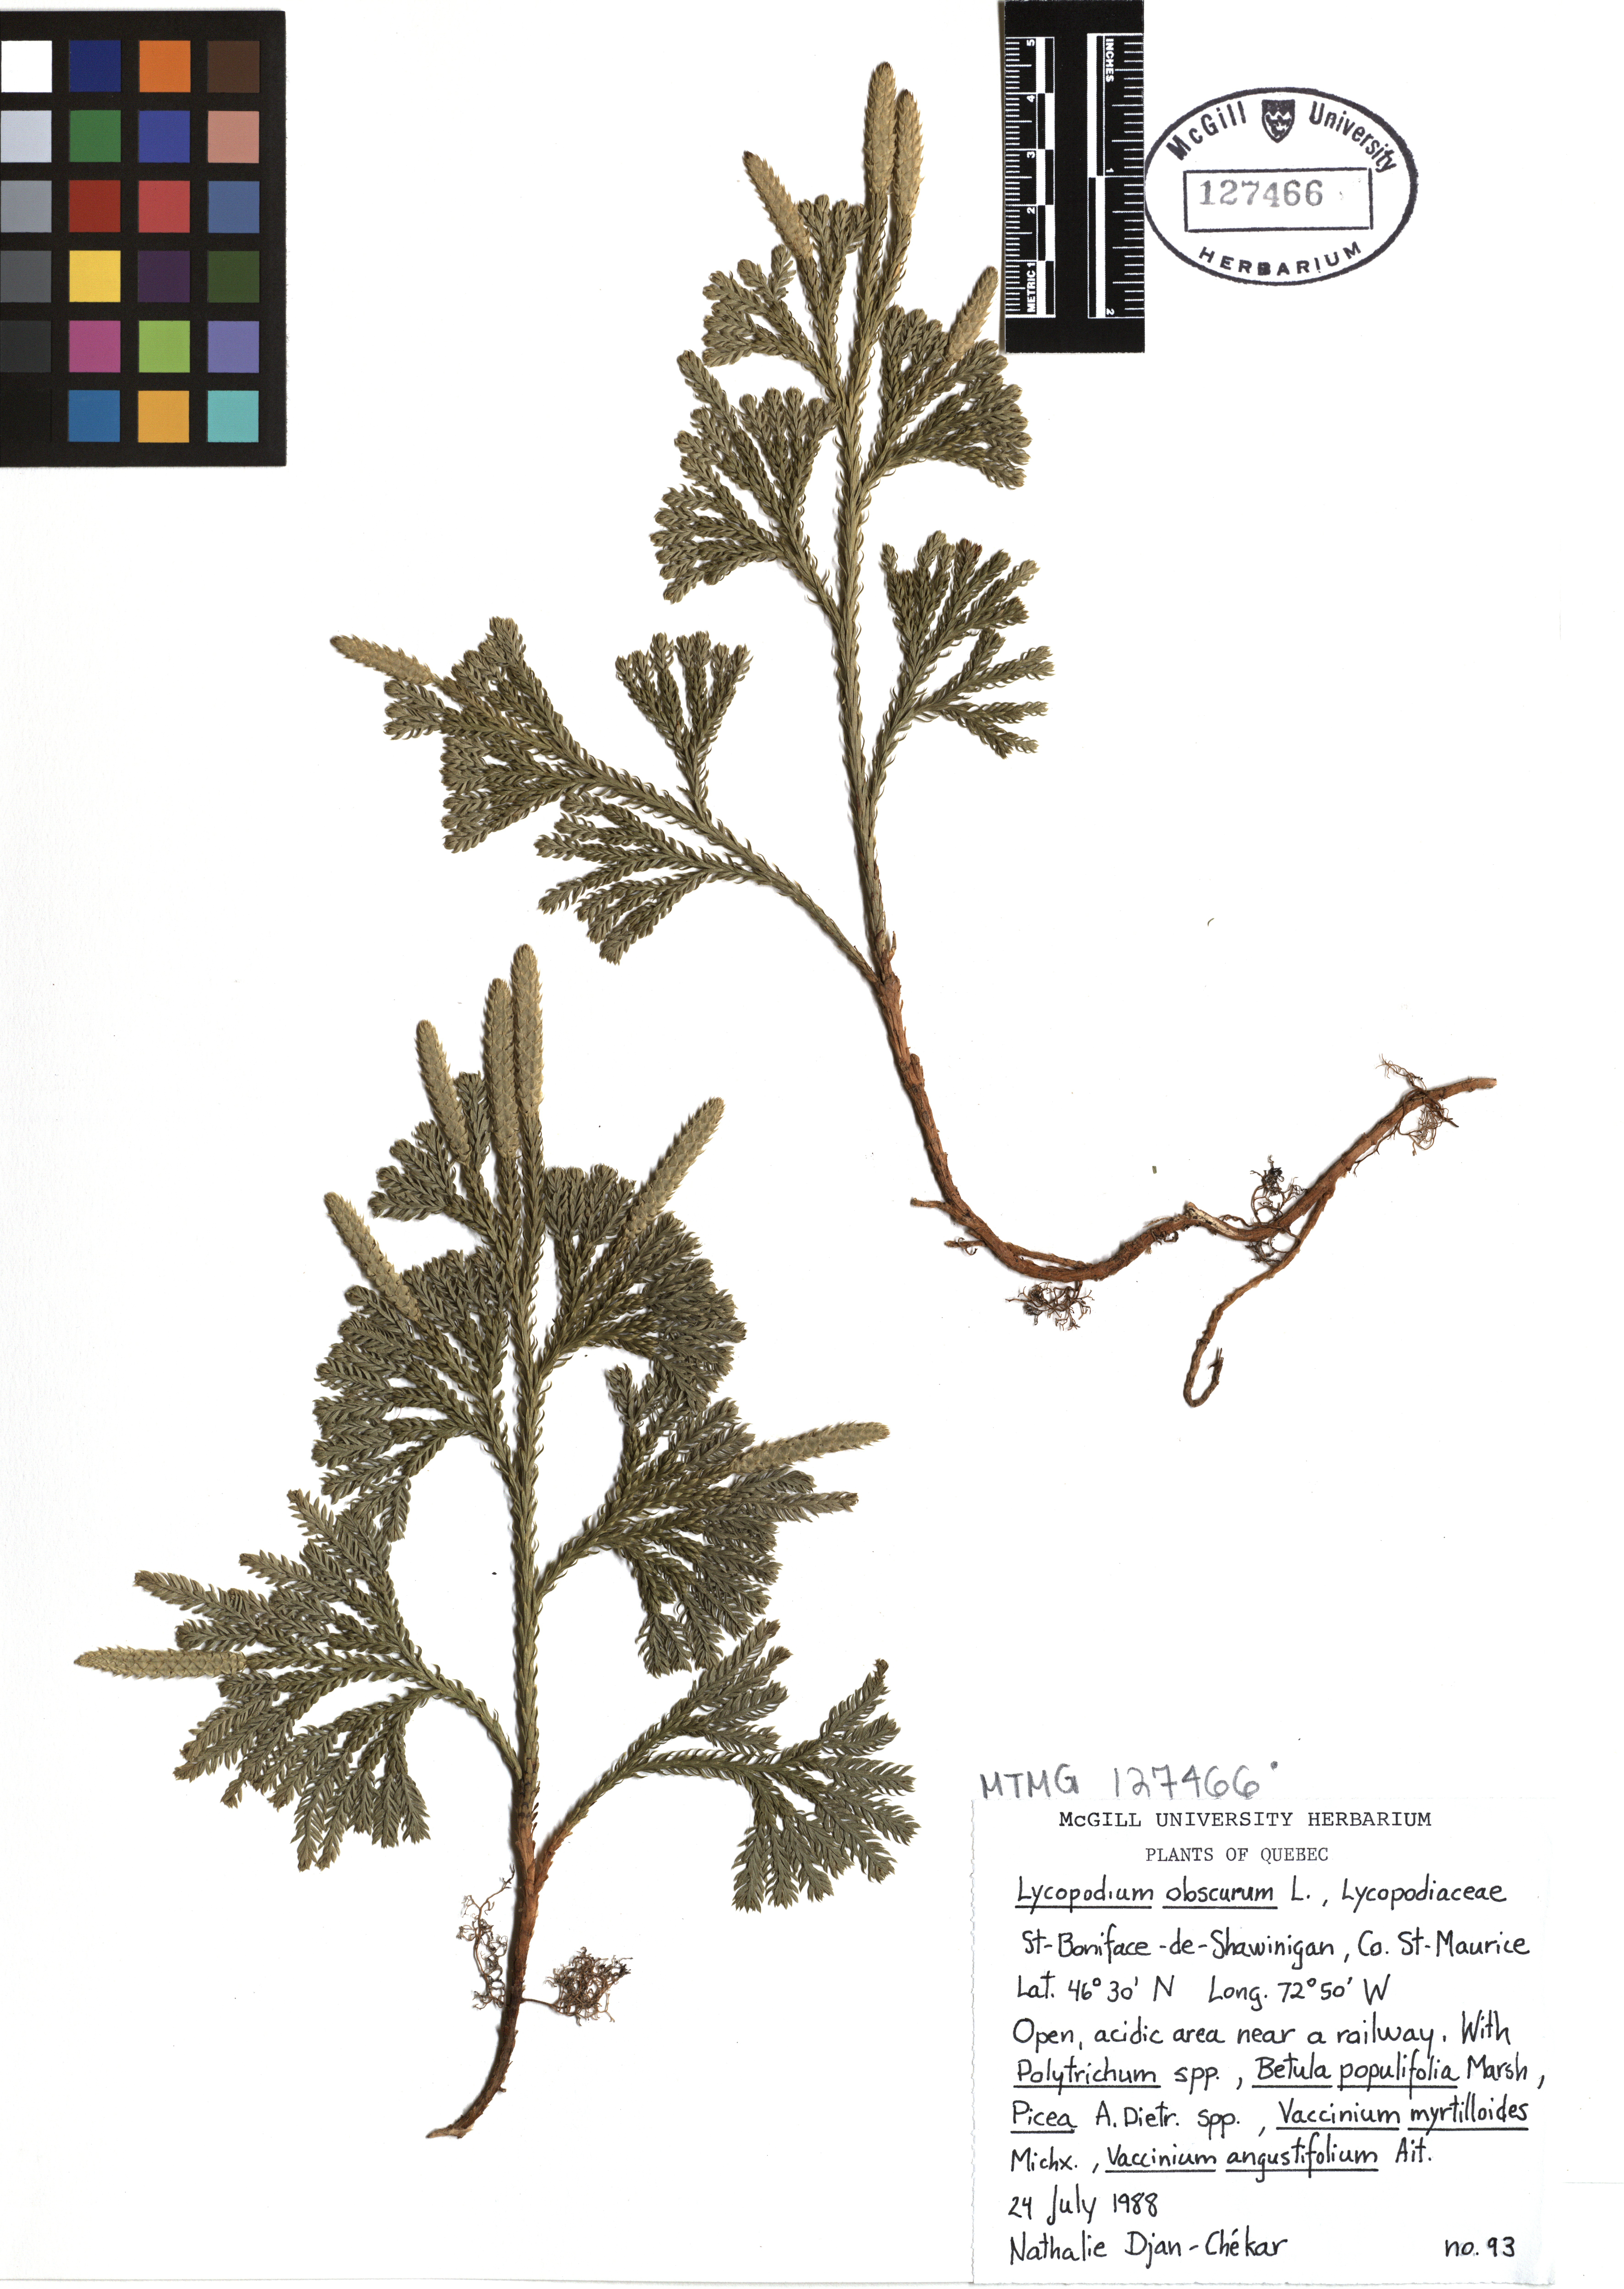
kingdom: Plantae
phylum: Tracheophyta
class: Lycopodiopsida
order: Lycopodiales
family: Lycopodiaceae
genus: Dendrolycopodium
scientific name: Dendrolycopodium obscurum
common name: Common ground-pine
